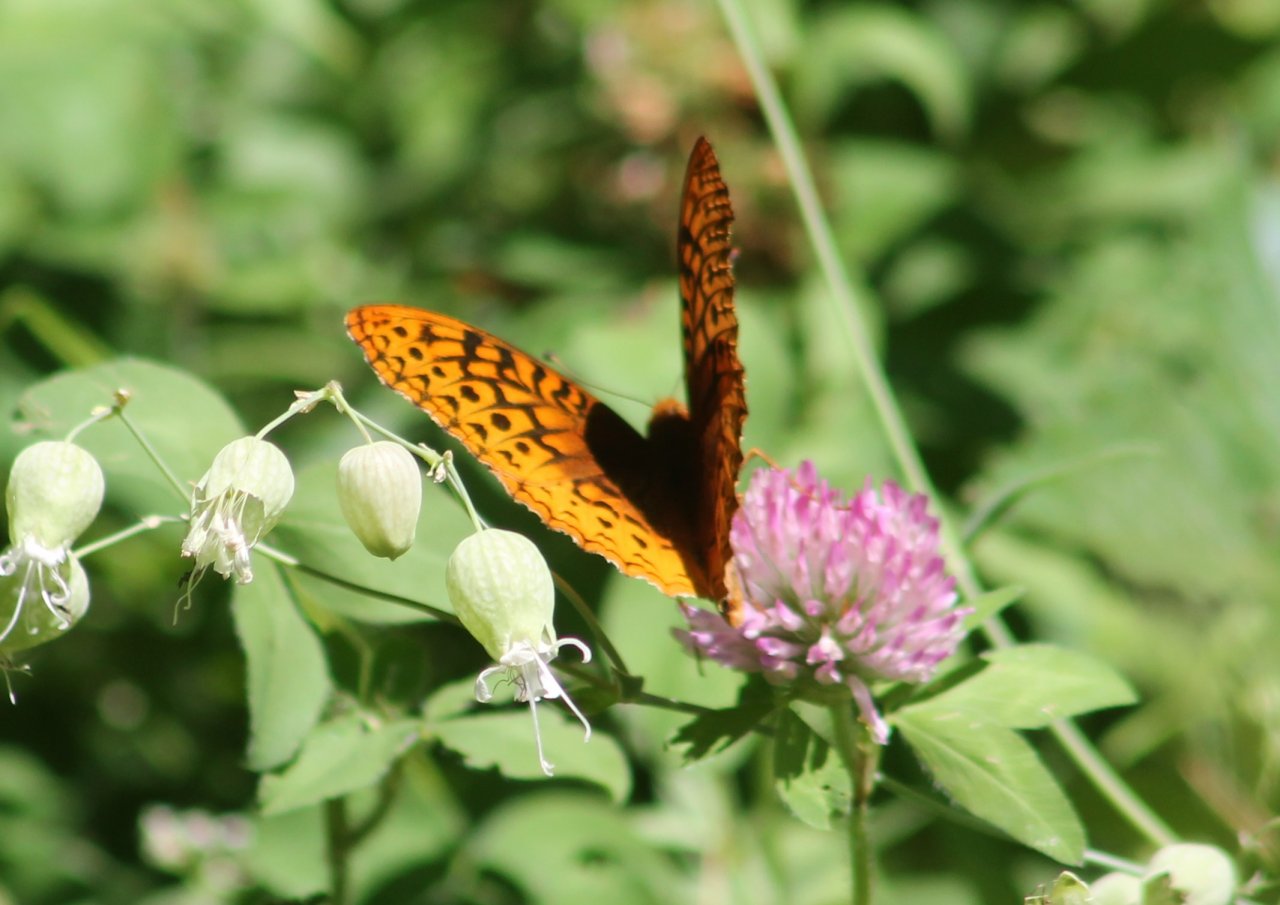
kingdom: Animalia
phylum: Arthropoda
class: Insecta
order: Lepidoptera
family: Nymphalidae
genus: Speyeria
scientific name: Speyeria aphrodite
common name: Aphrodite Fritillary
